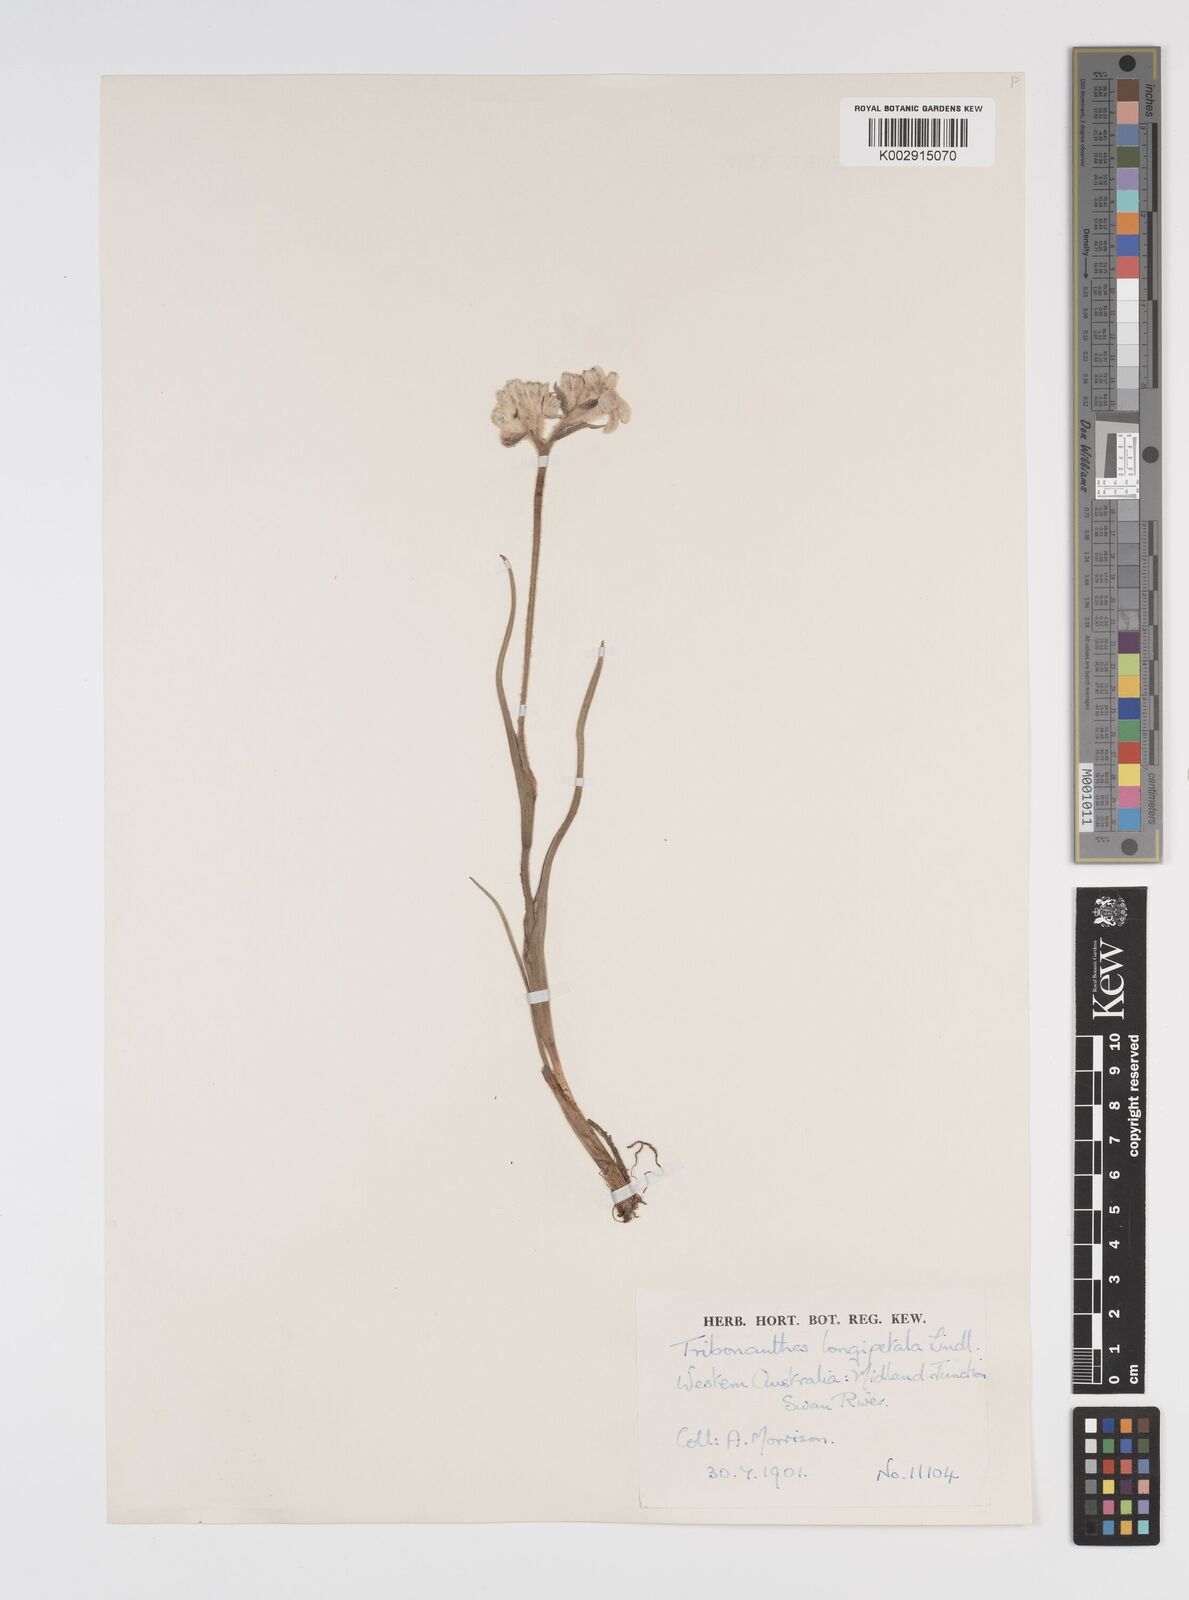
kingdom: Plantae
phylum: Tracheophyta
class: Liliopsida
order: Commelinales
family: Haemodoraceae
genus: Tribonanthes
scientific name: Tribonanthes longipetala
